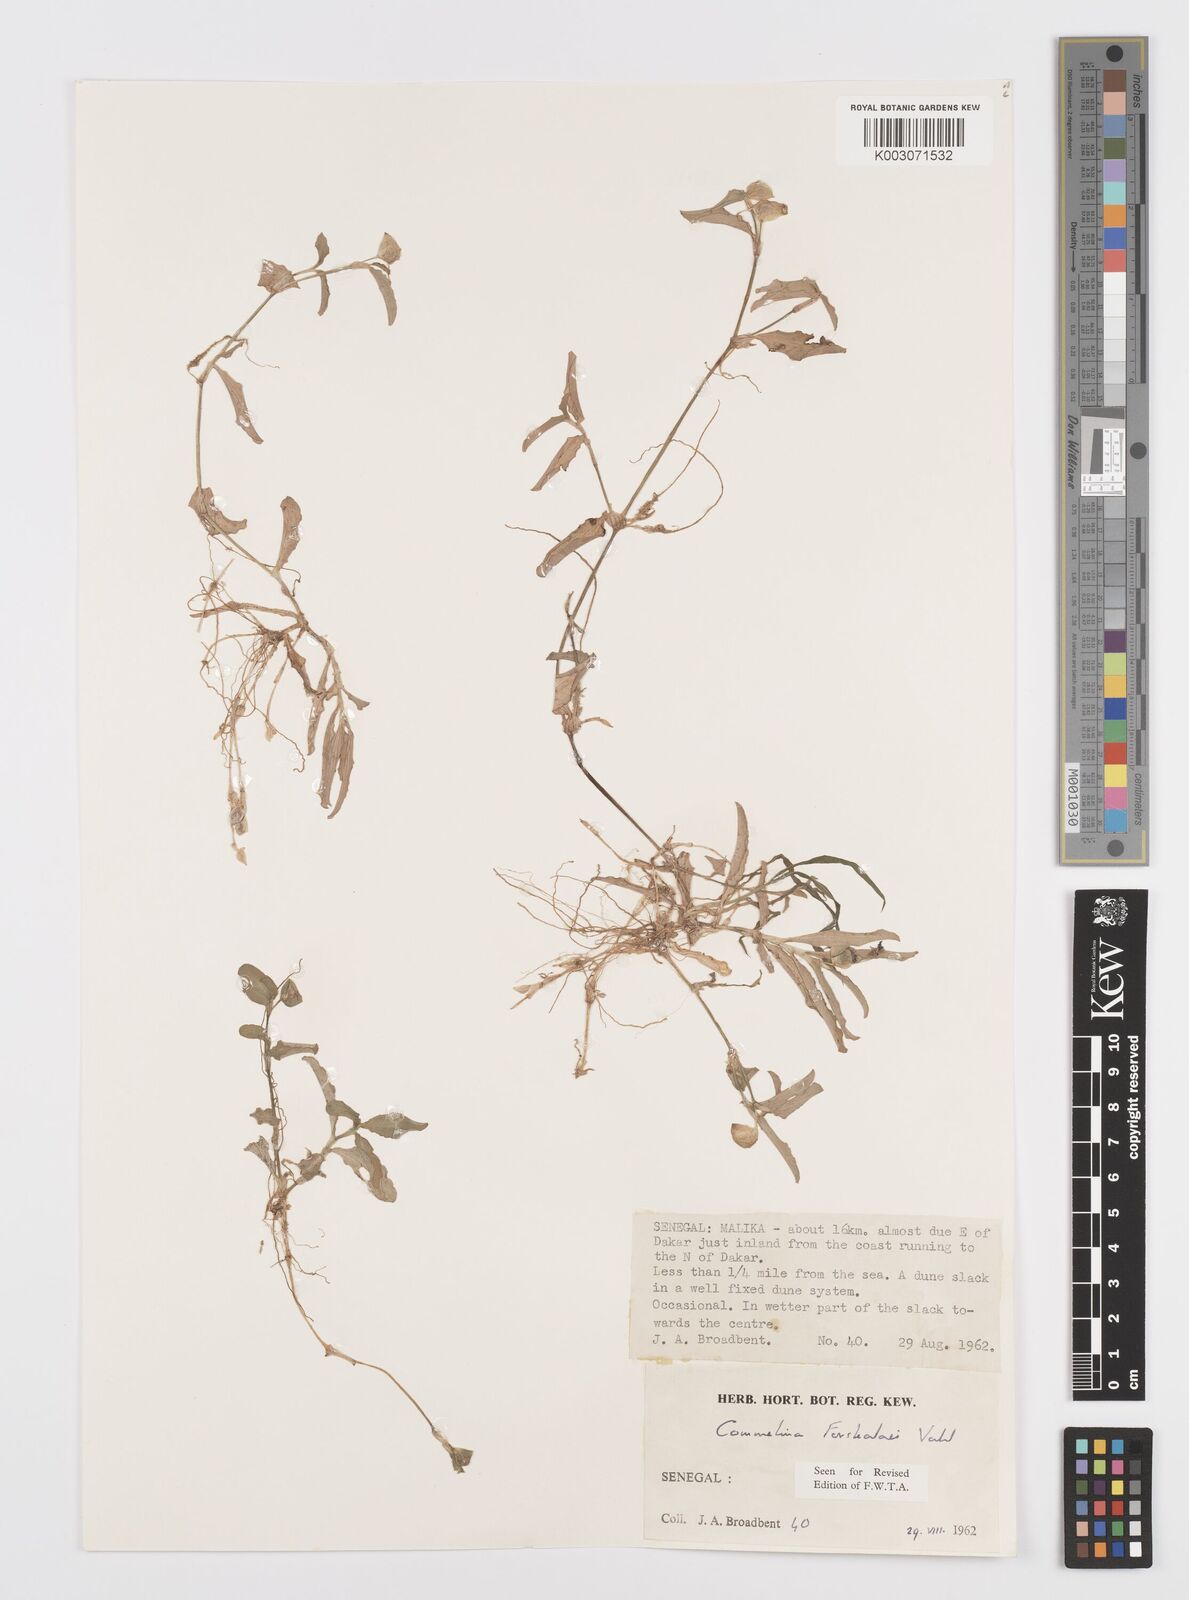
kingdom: Plantae
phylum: Tracheophyta
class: Liliopsida
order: Commelinales
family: Commelinaceae
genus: Commelina
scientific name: Commelina forskaolii
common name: Rat's ear
